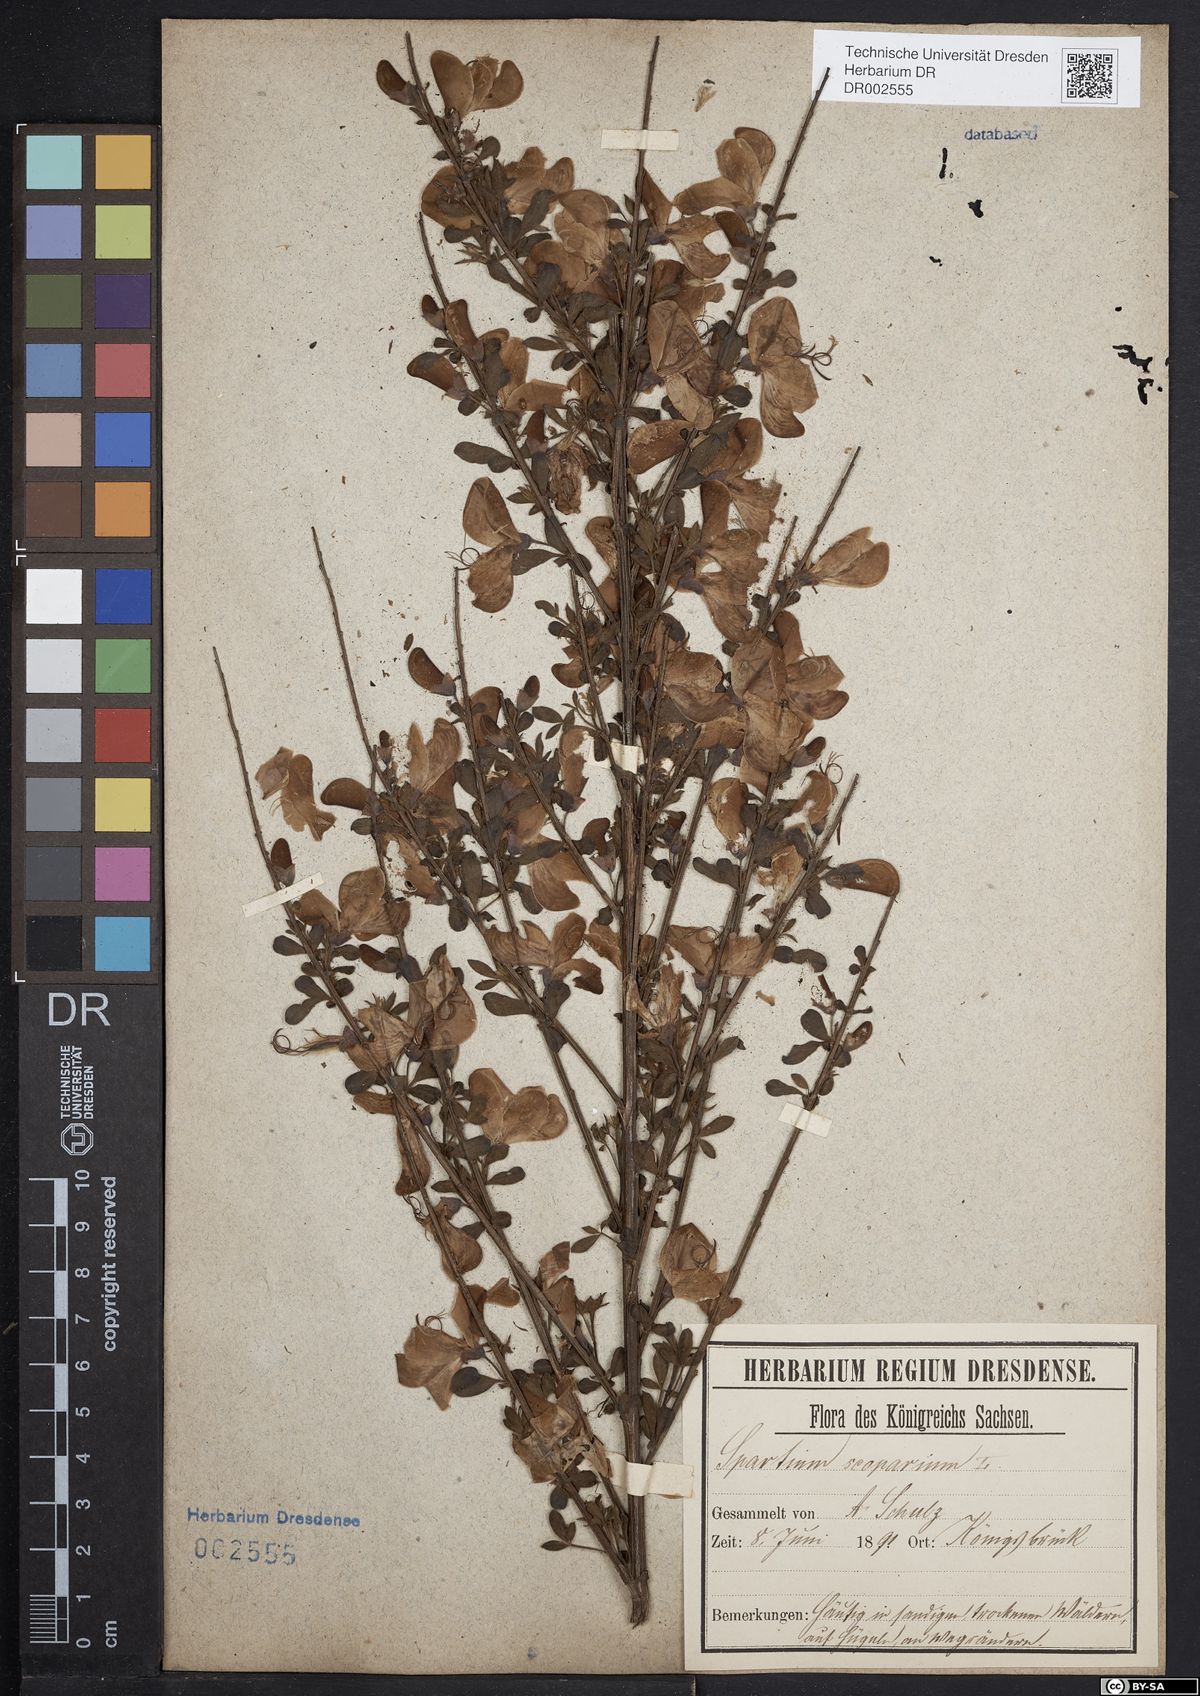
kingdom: Plantae
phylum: Tracheophyta
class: Magnoliopsida
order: Fabales
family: Fabaceae
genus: Cytisus
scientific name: Cytisus scoparius
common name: Scotch broom
